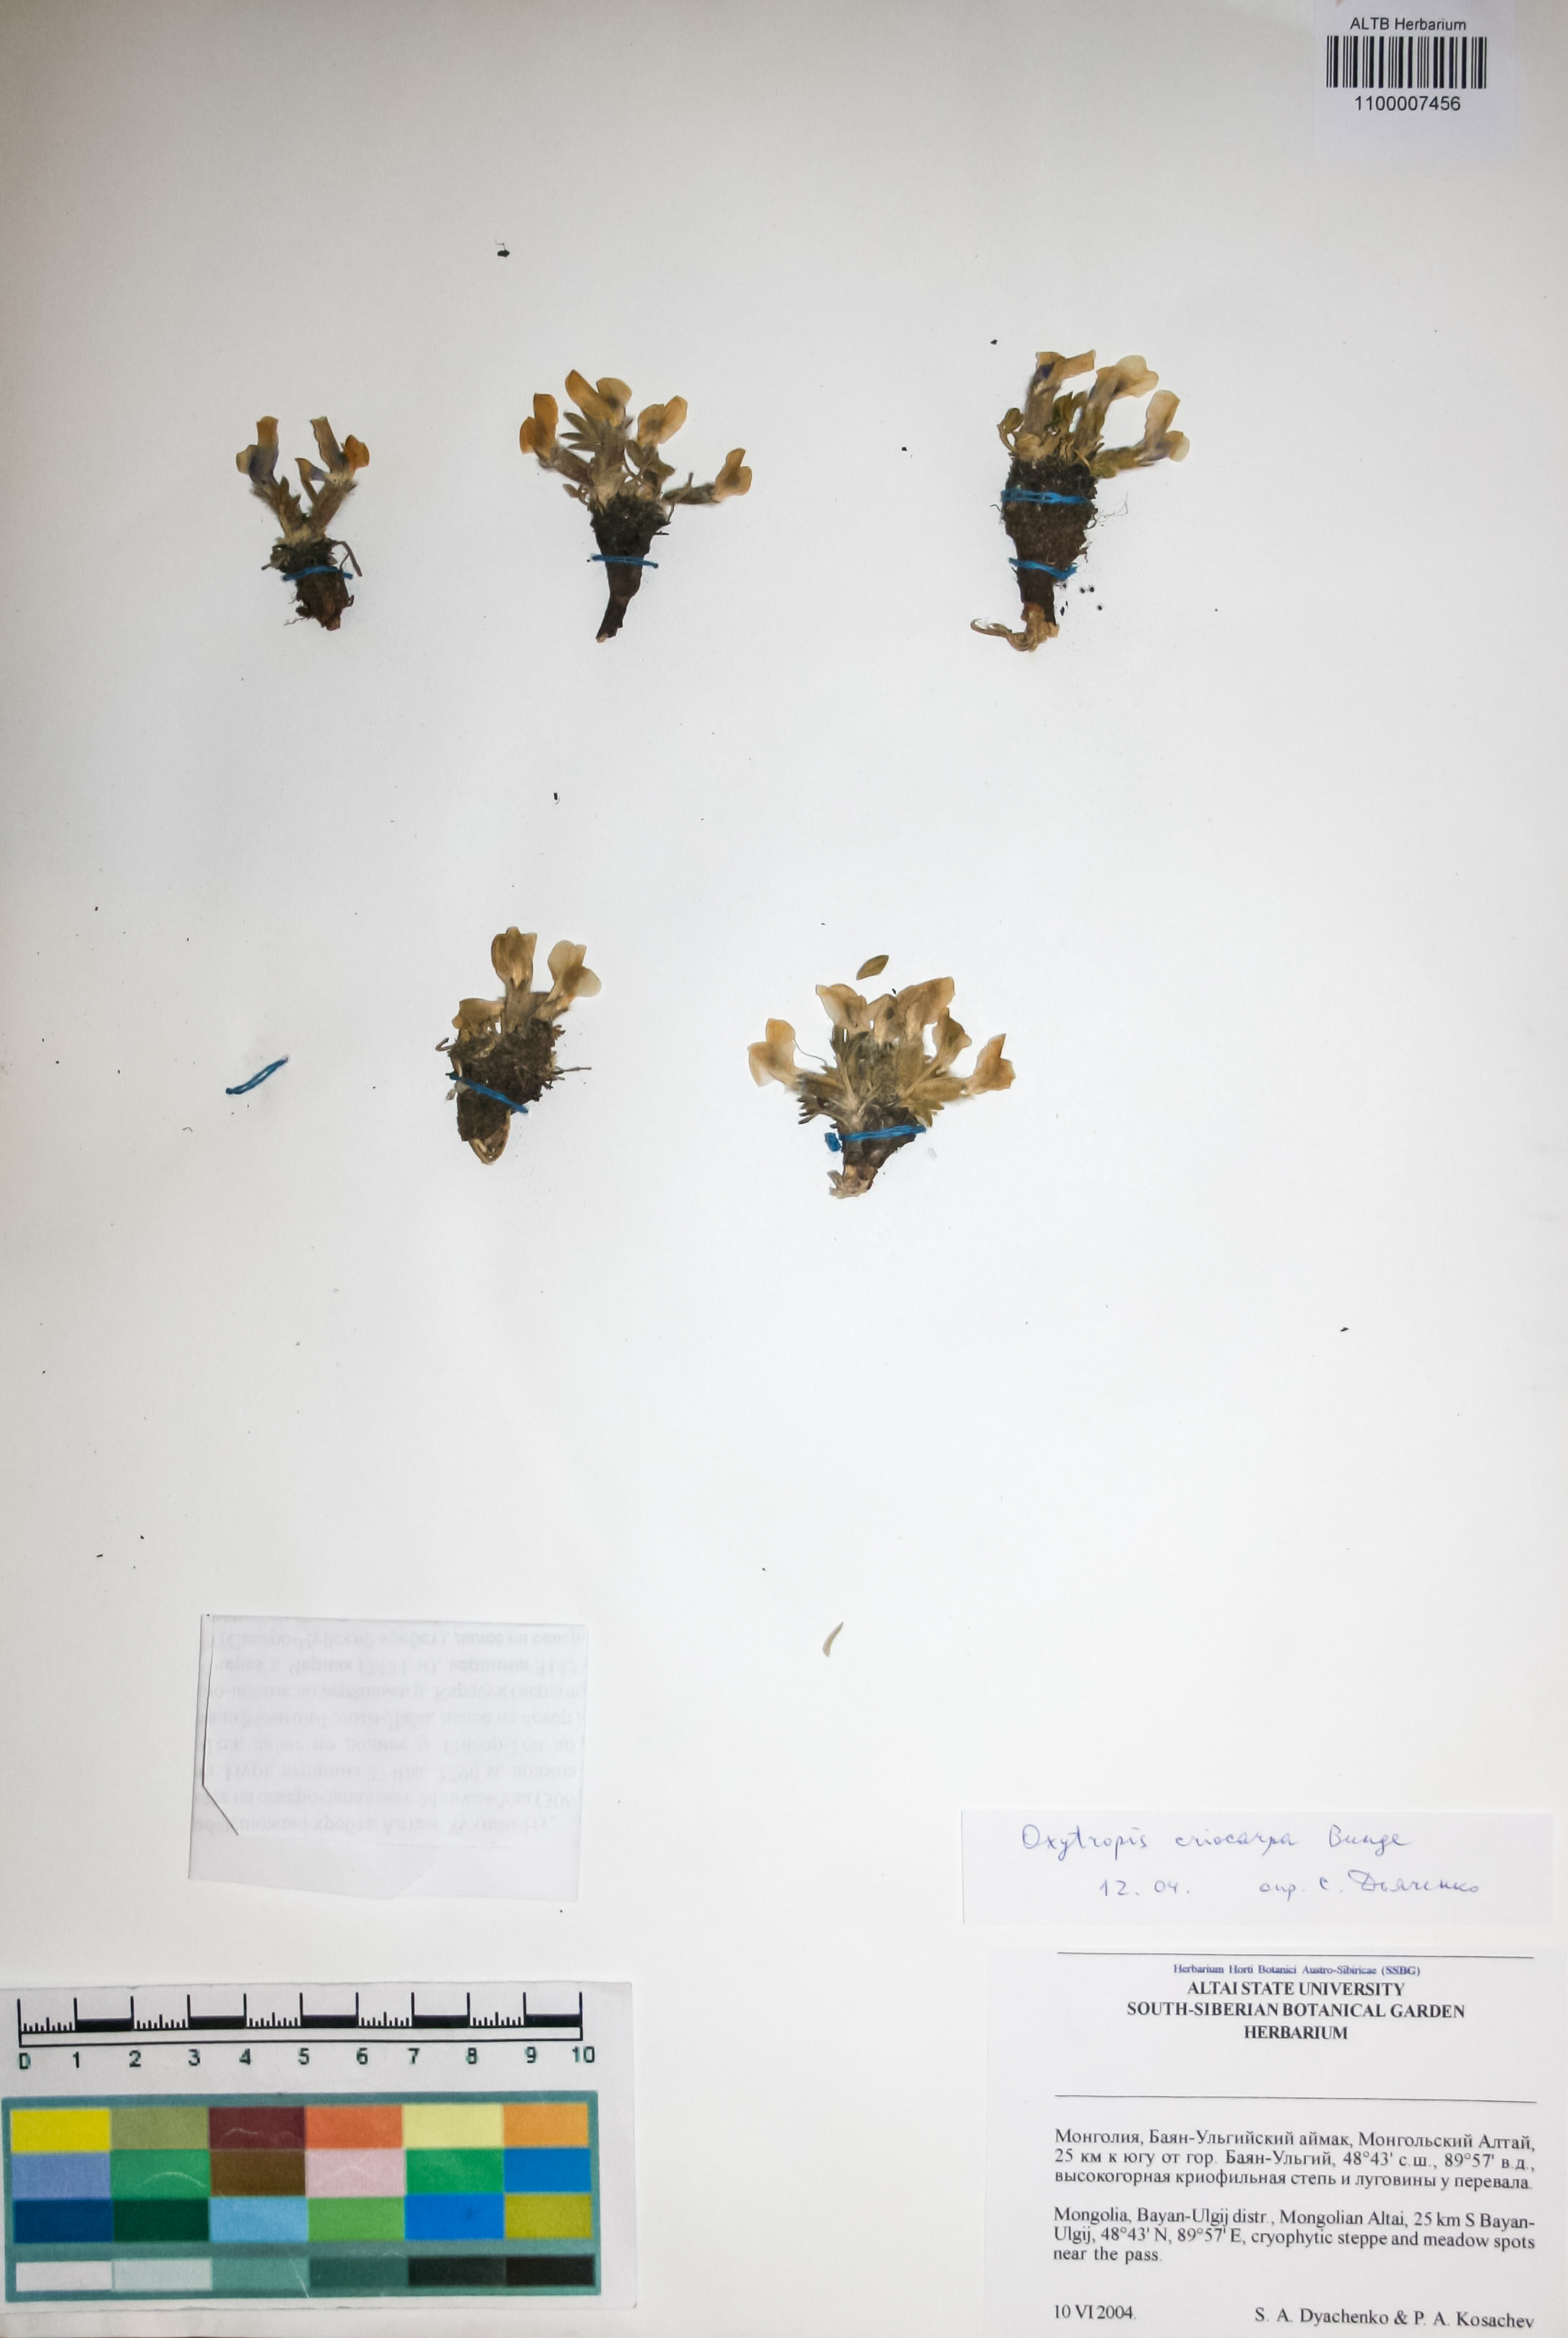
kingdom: Plantae
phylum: Tracheophyta
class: Magnoliopsida
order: Fabales
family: Fabaceae
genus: Oxytropis
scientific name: Oxytropis eriocarpa
